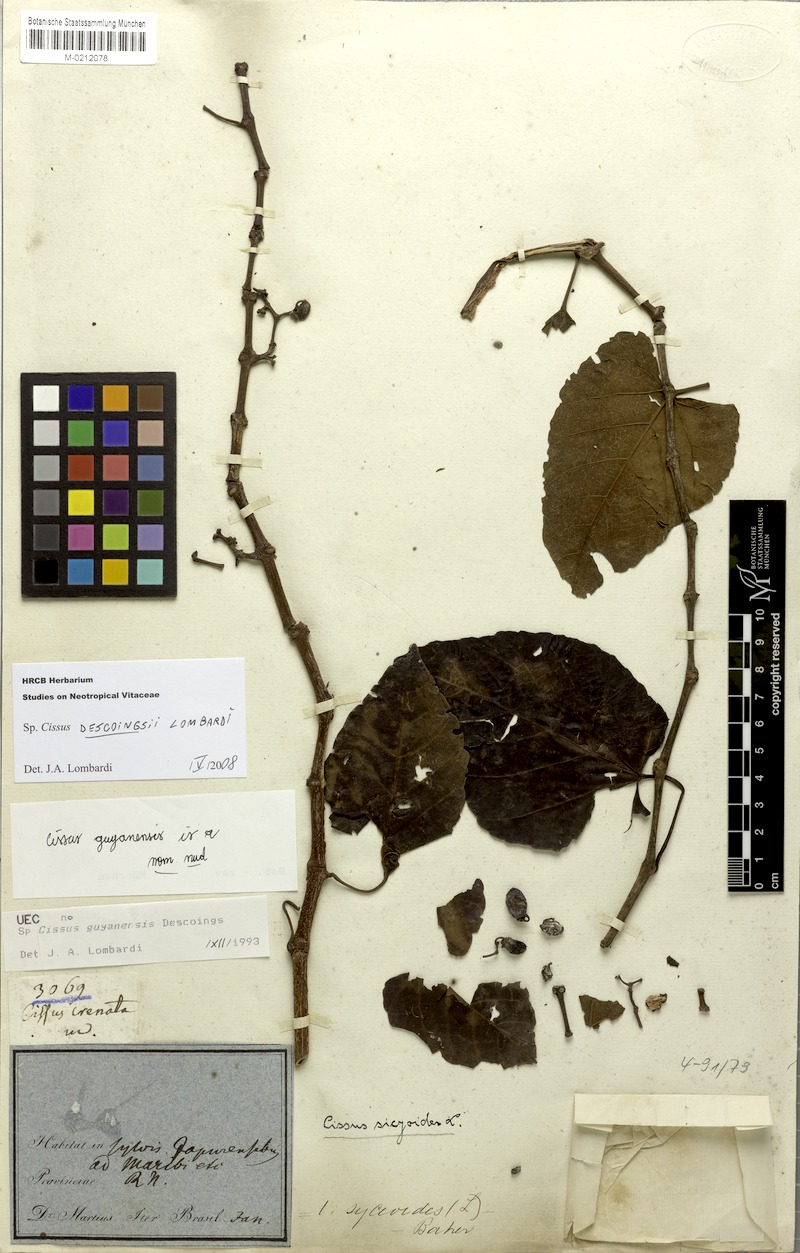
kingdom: Plantae
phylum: Tracheophyta
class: Magnoliopsida
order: Vitales
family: Vitaceae
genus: Cissus
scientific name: Cissus descoingsii
